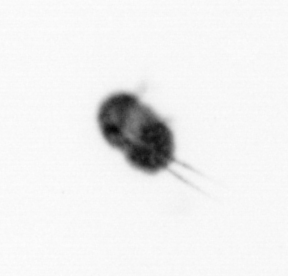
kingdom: Animalia
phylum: Arthropoda
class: Copepoda
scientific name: Copepoda
